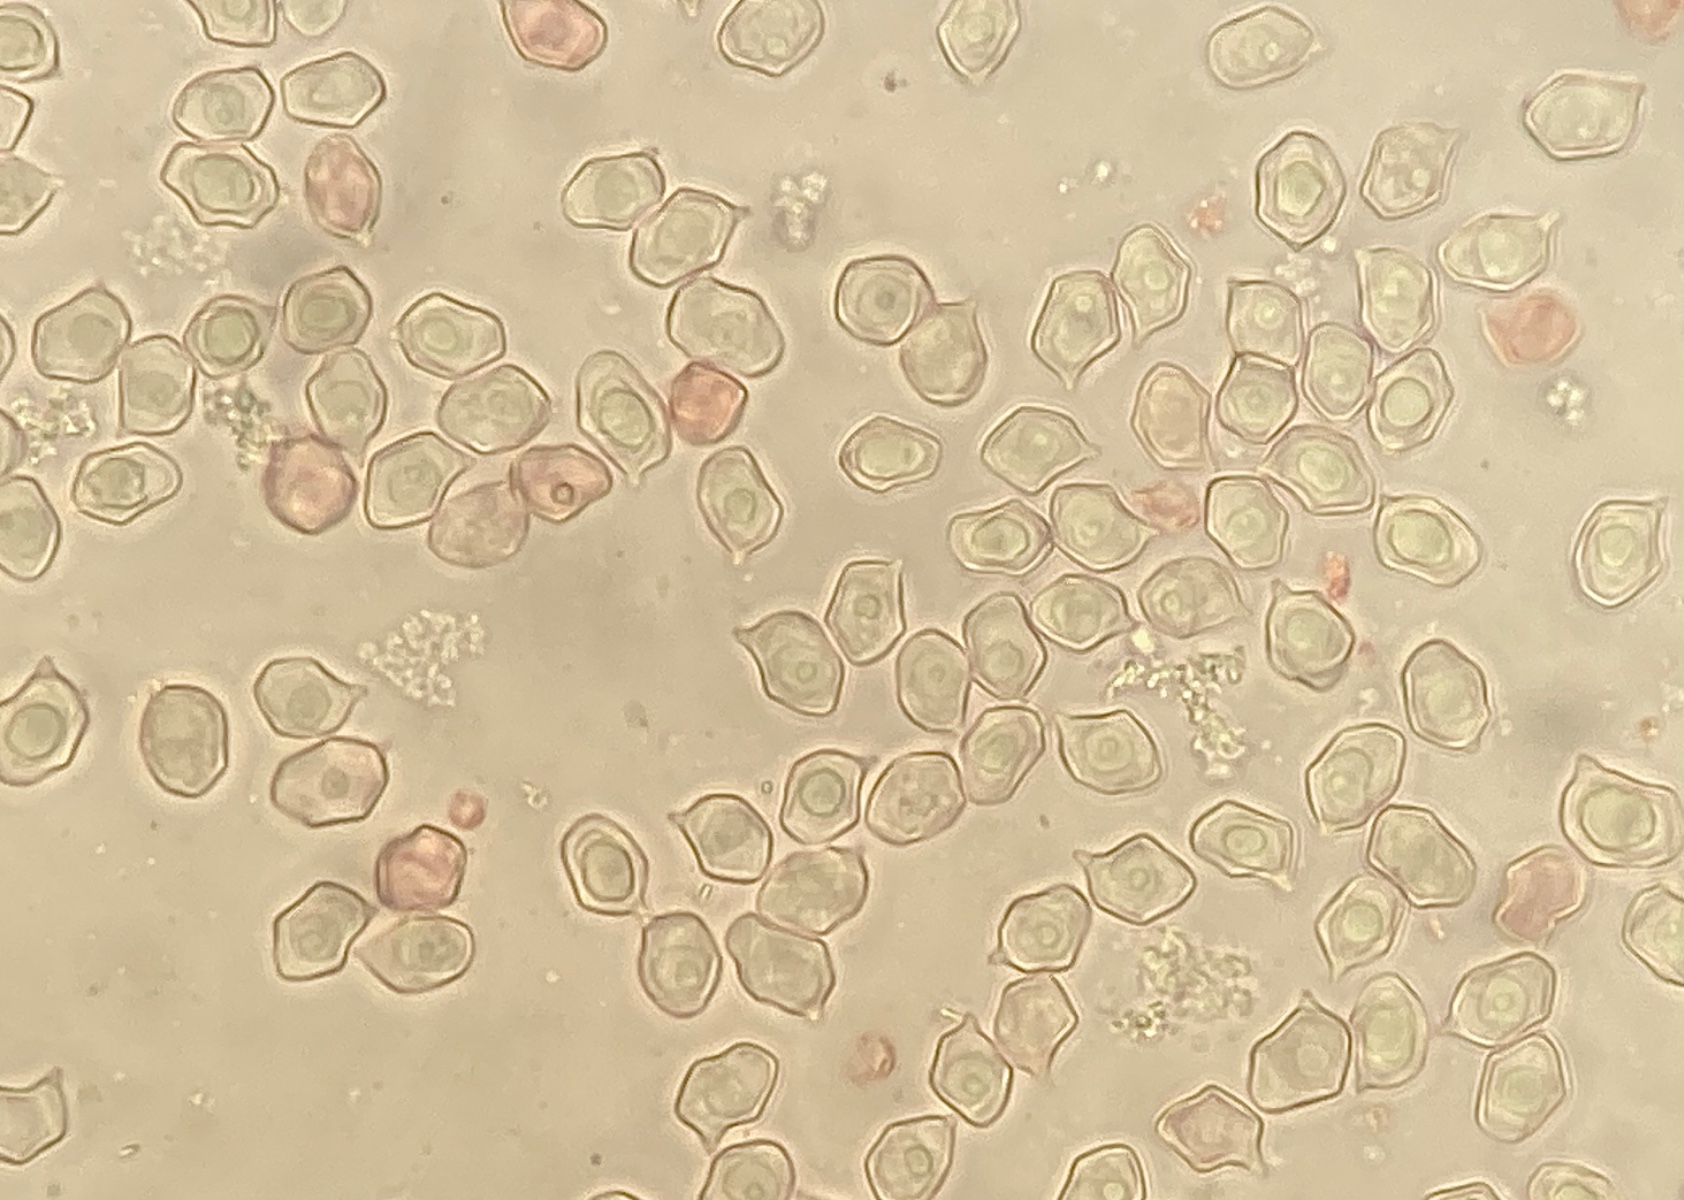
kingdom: Fungi
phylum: Basidiomycota
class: Agaricomycetes
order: Agaricales
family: Entolomataceae
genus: Entoloma
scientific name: Entoloma cyaneolilacinum
